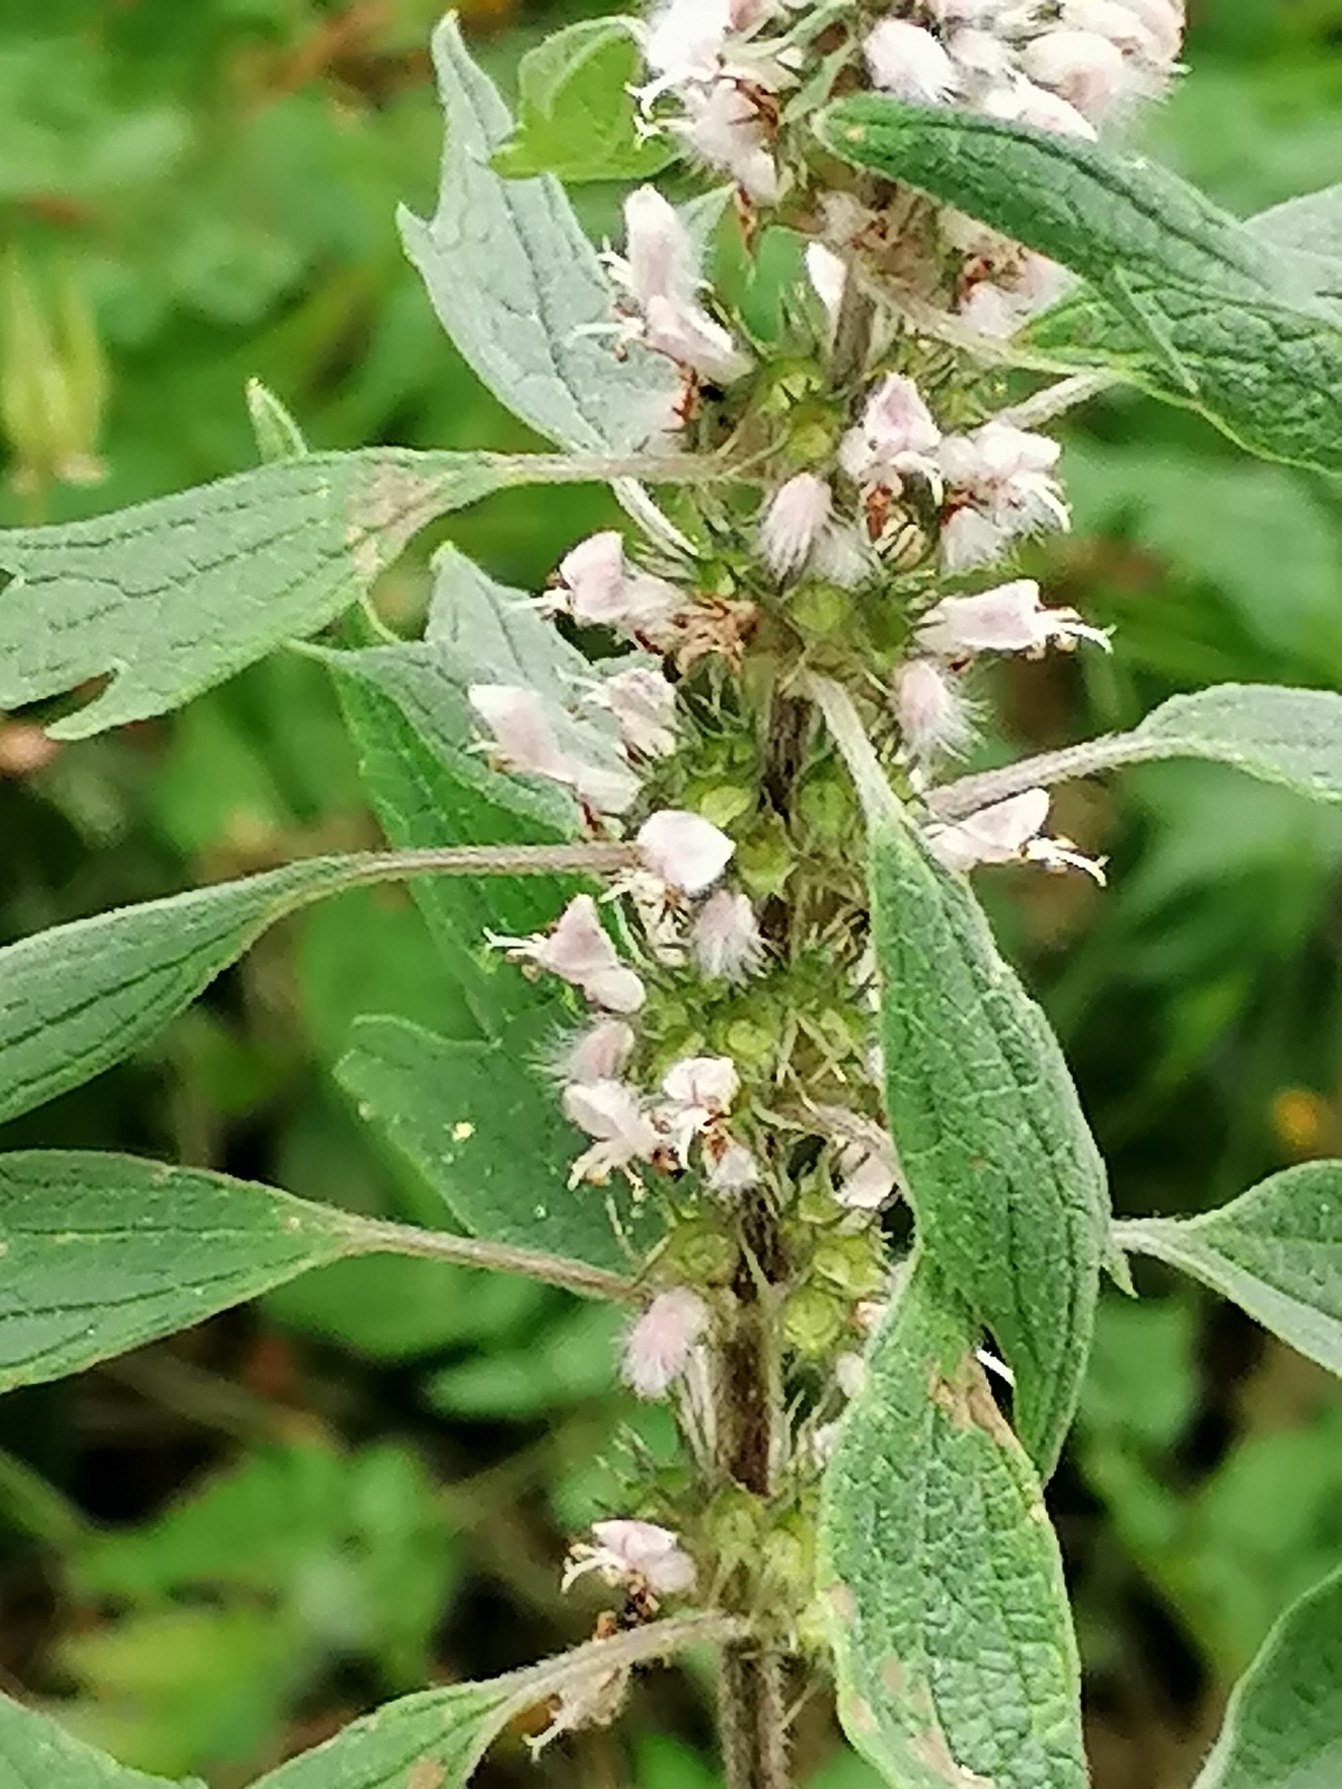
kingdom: Plantae
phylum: Tracheophyta
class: Magnoliopsida
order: Lamiales
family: Lamiaceae
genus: Leonurus
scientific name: Leonurus cardiaca
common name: Hjertespand
